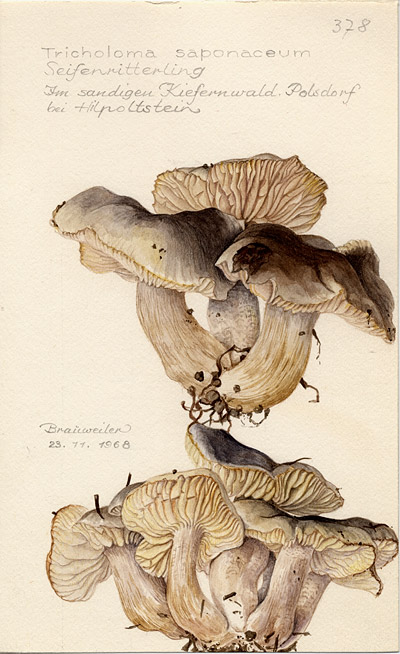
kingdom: Fungi
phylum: Basidiomycota
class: Agaricomycetes
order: Agaricales
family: Tricholomataceae
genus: Tricholoma
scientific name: Tricholoma saponaceum
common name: Soapy trich
